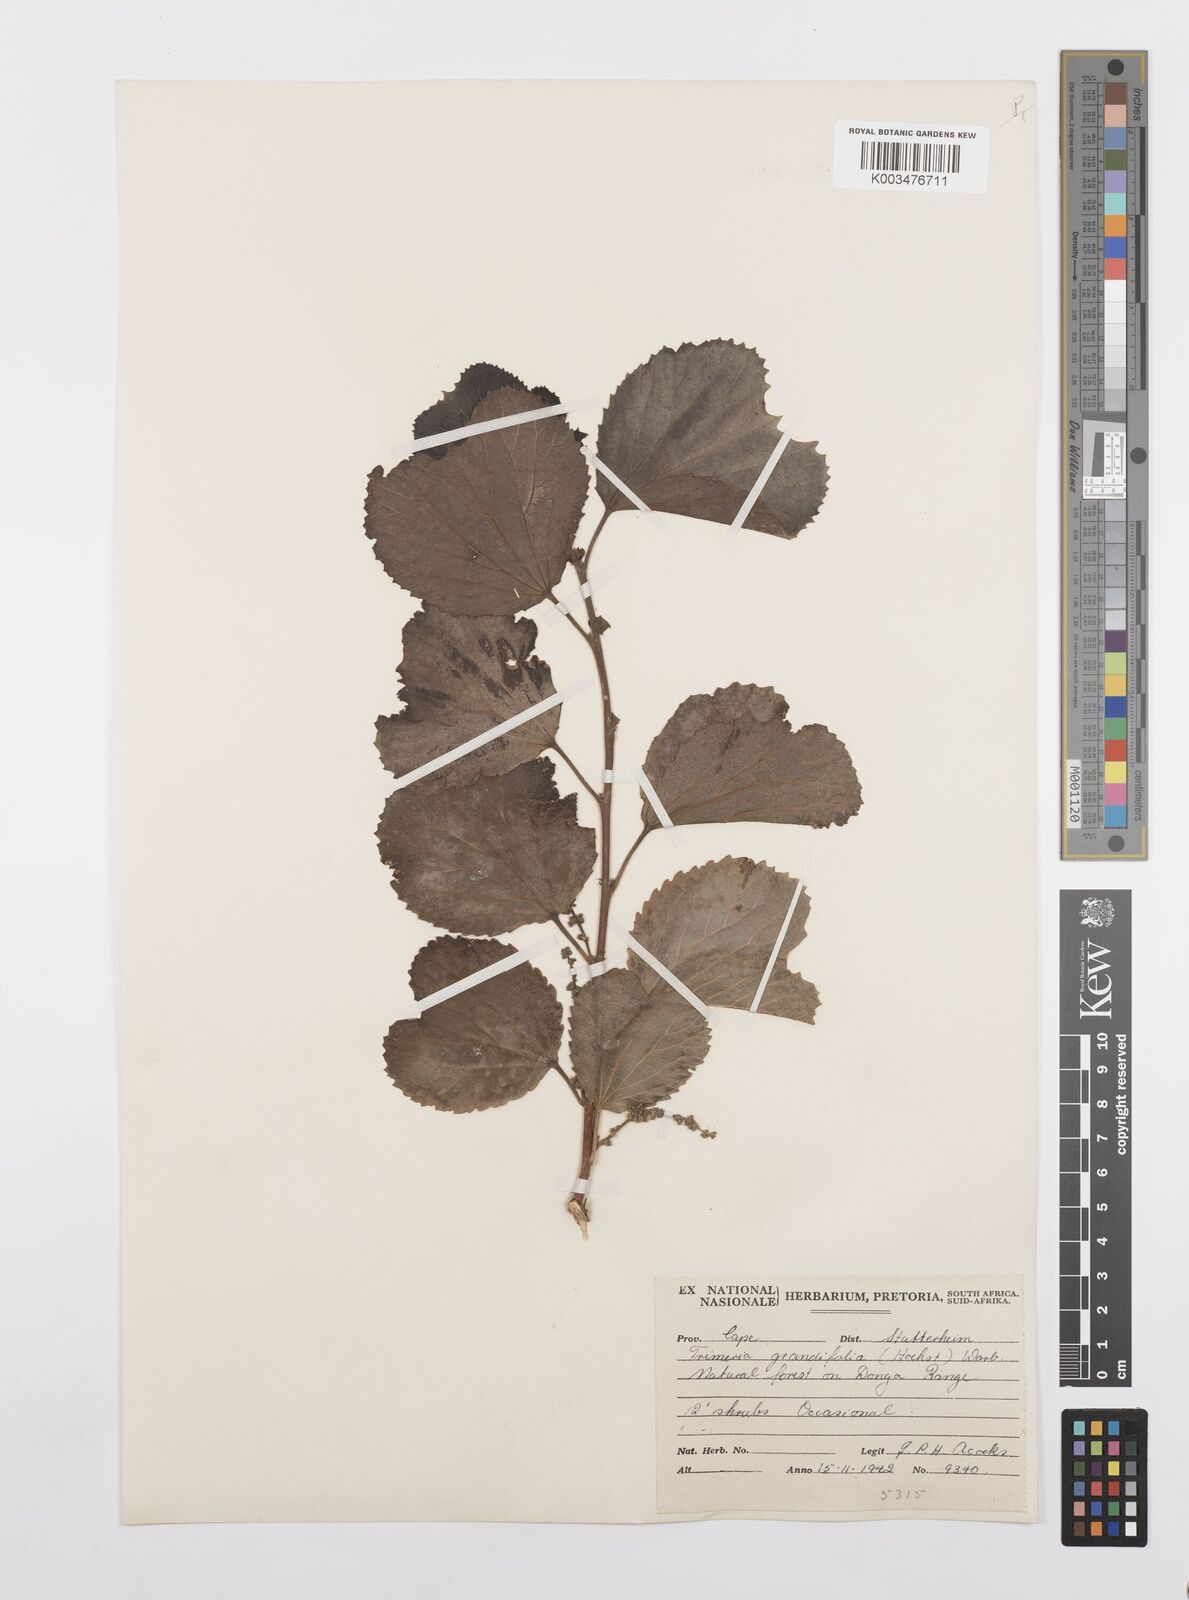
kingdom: Plantae
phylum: Tracheophyta
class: Magnoliopsida
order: Malpighiales
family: Salicaceae
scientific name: Salicaceae
